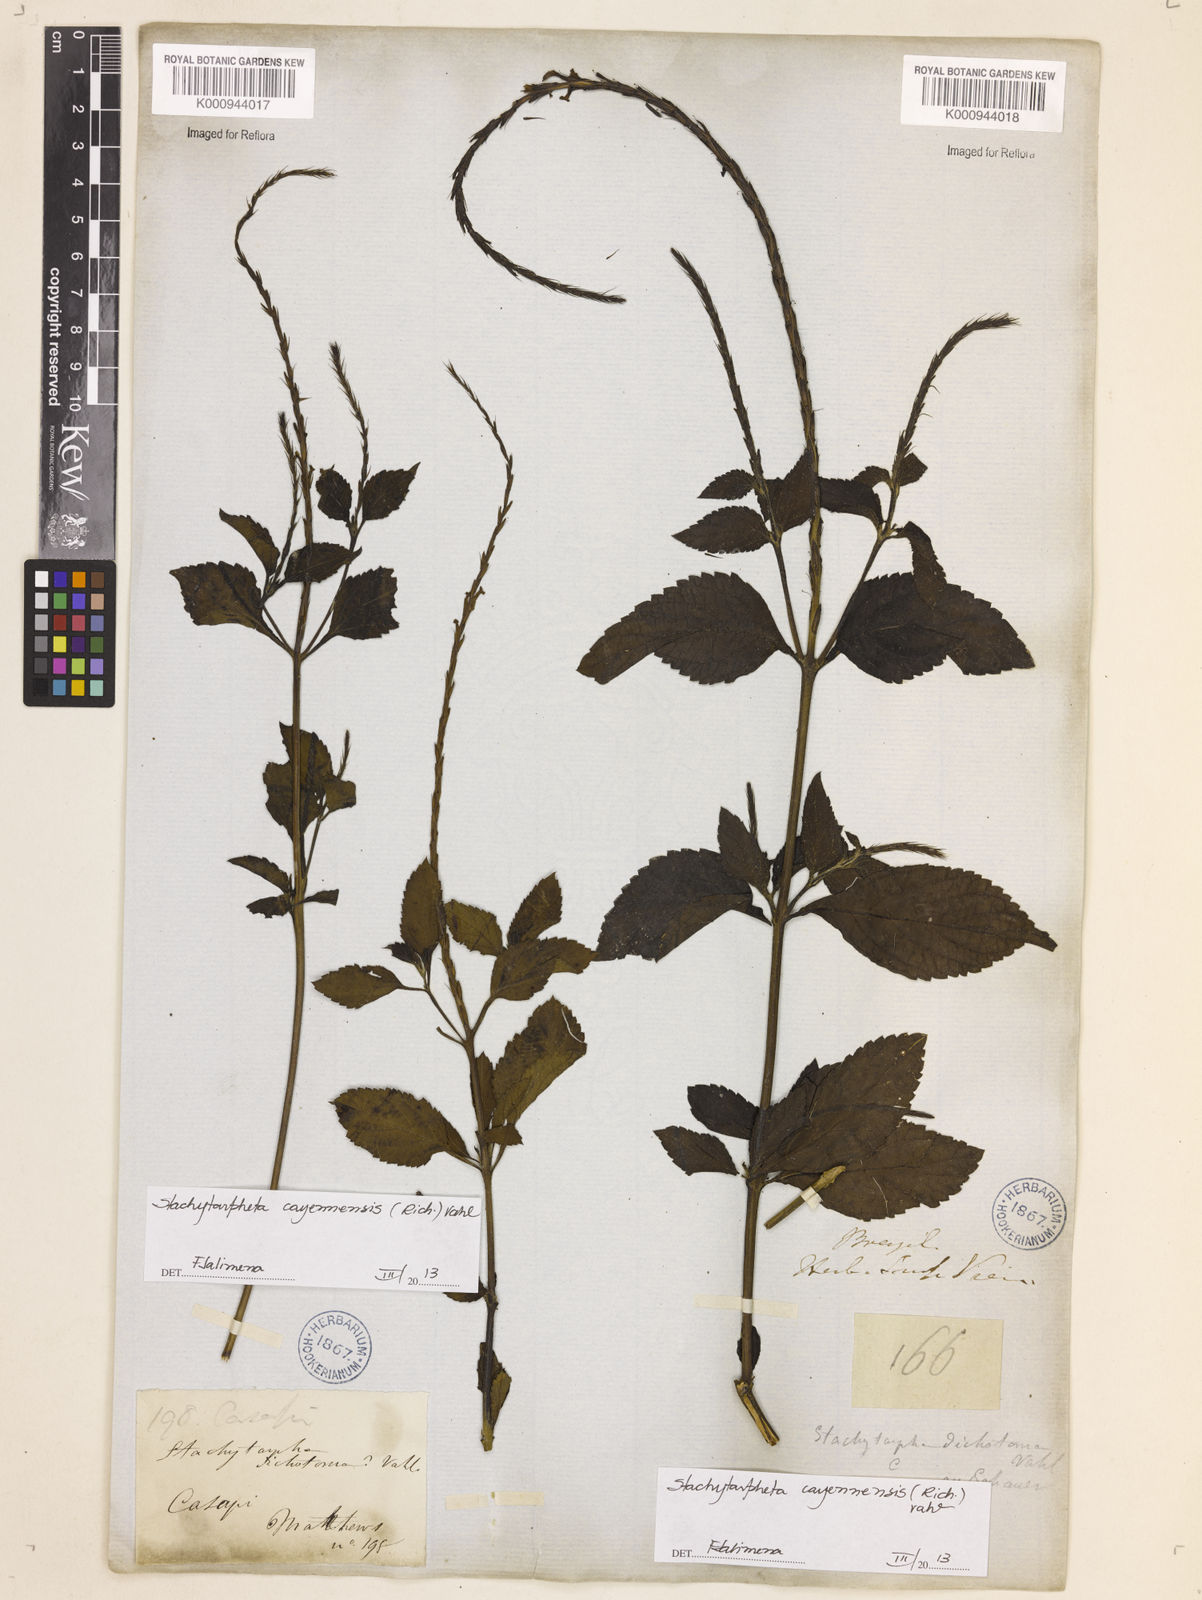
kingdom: Plantae
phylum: Tracheophyta
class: Magnoliopsida
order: Lamiales
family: Verbenaceae
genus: Aloysia
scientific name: Aloysia
